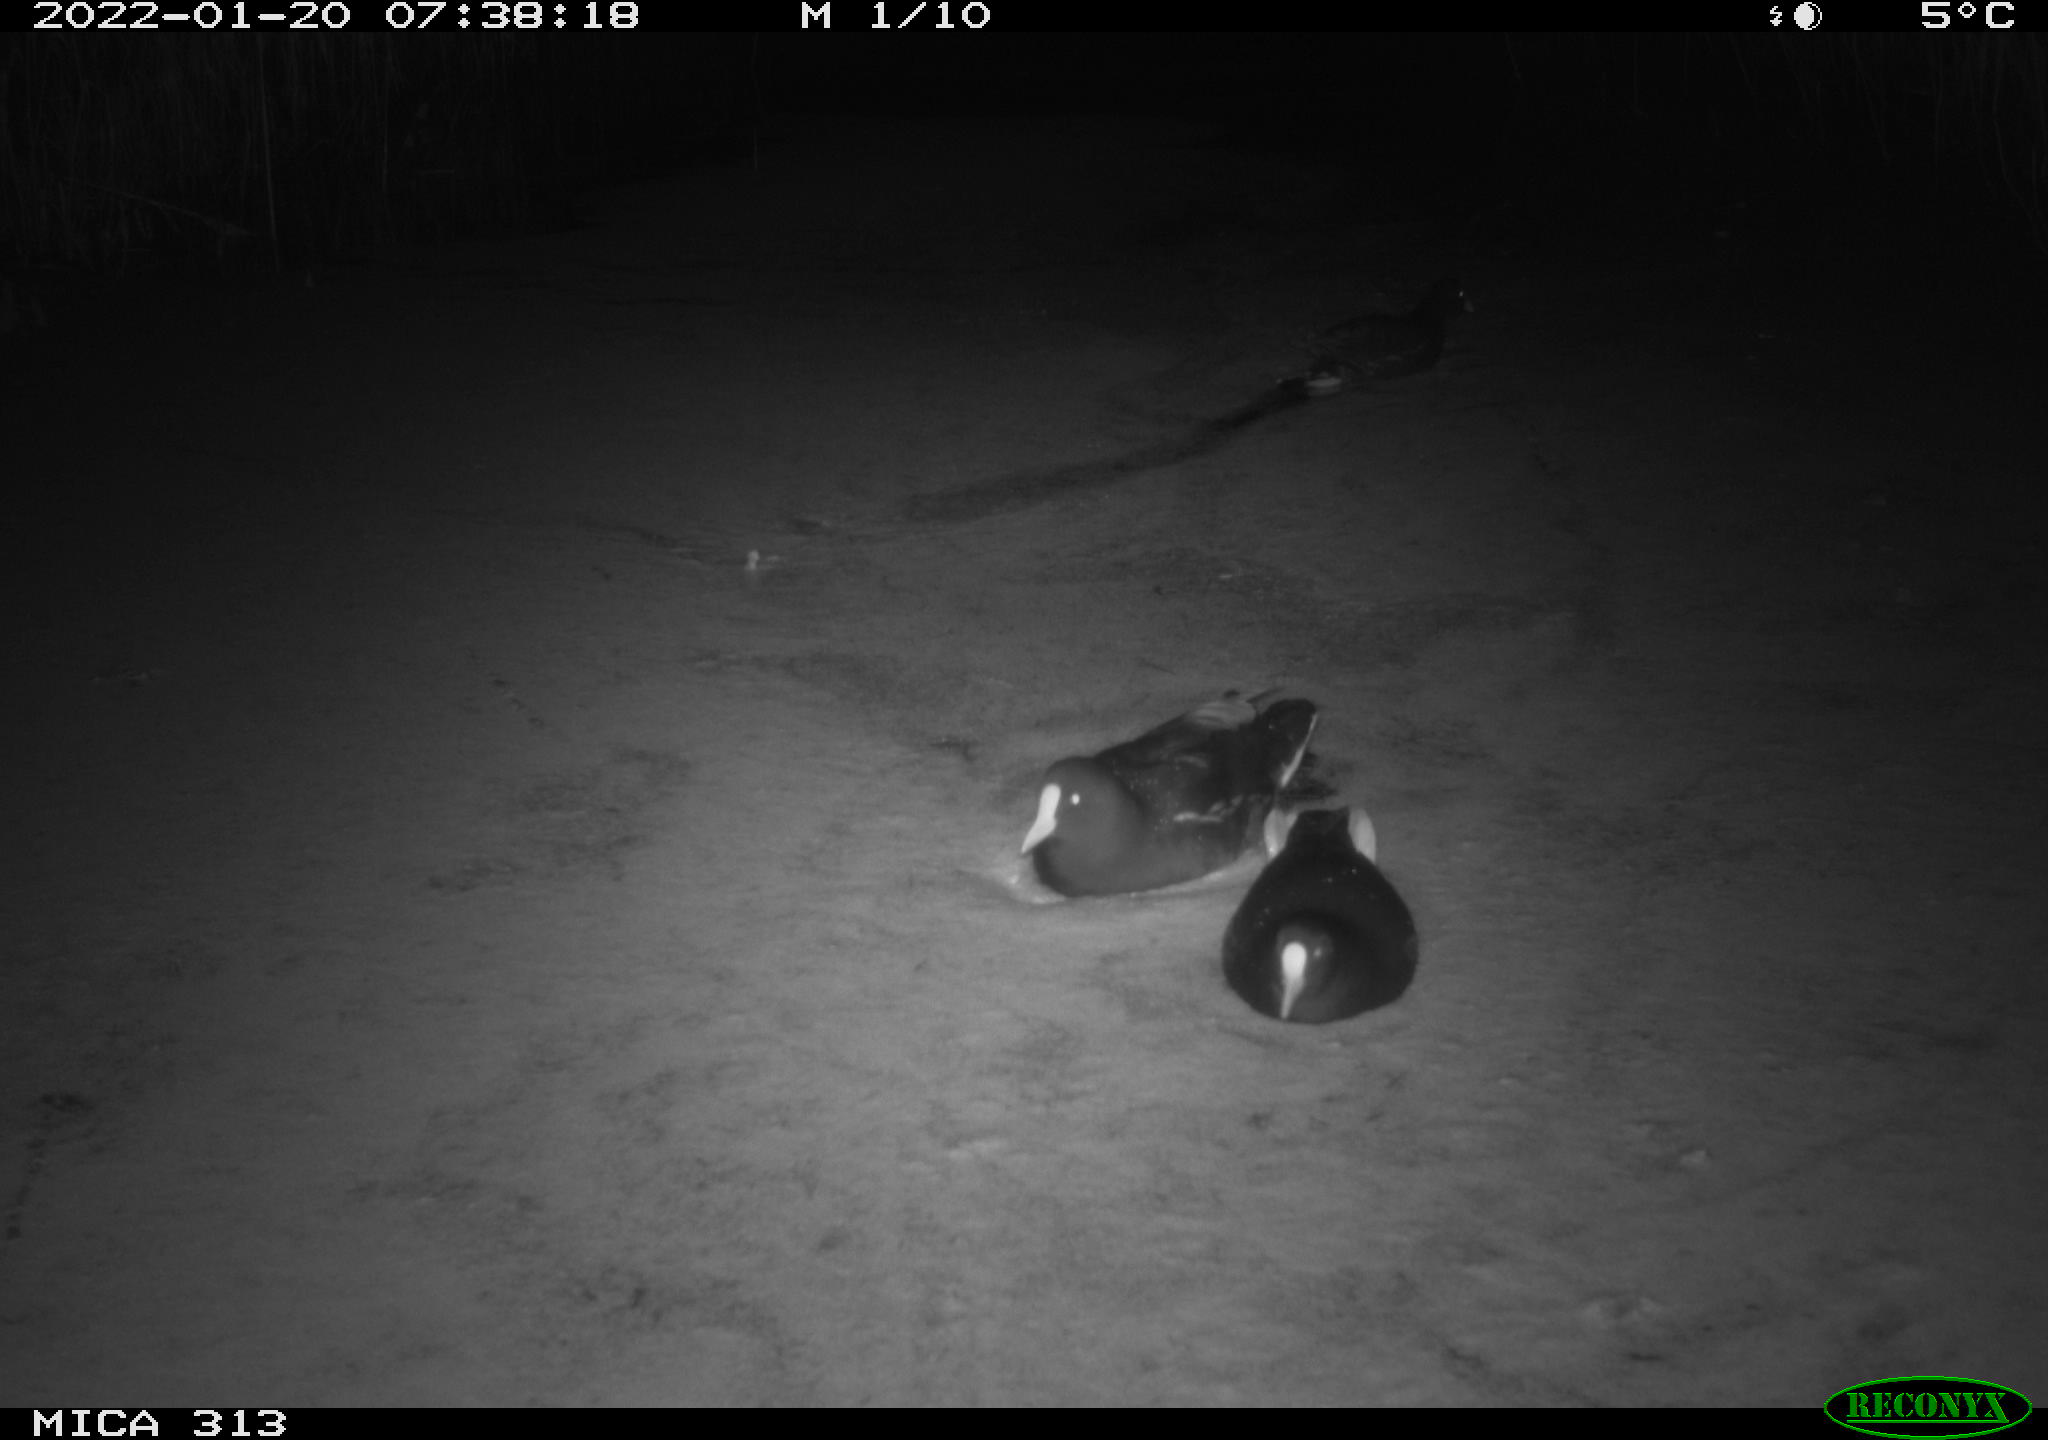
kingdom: Animalia
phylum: Chordata
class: Aves
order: Gruiformes
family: Rallidae
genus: Gallinula
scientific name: Gallinula chloropus
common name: Common moorhen
